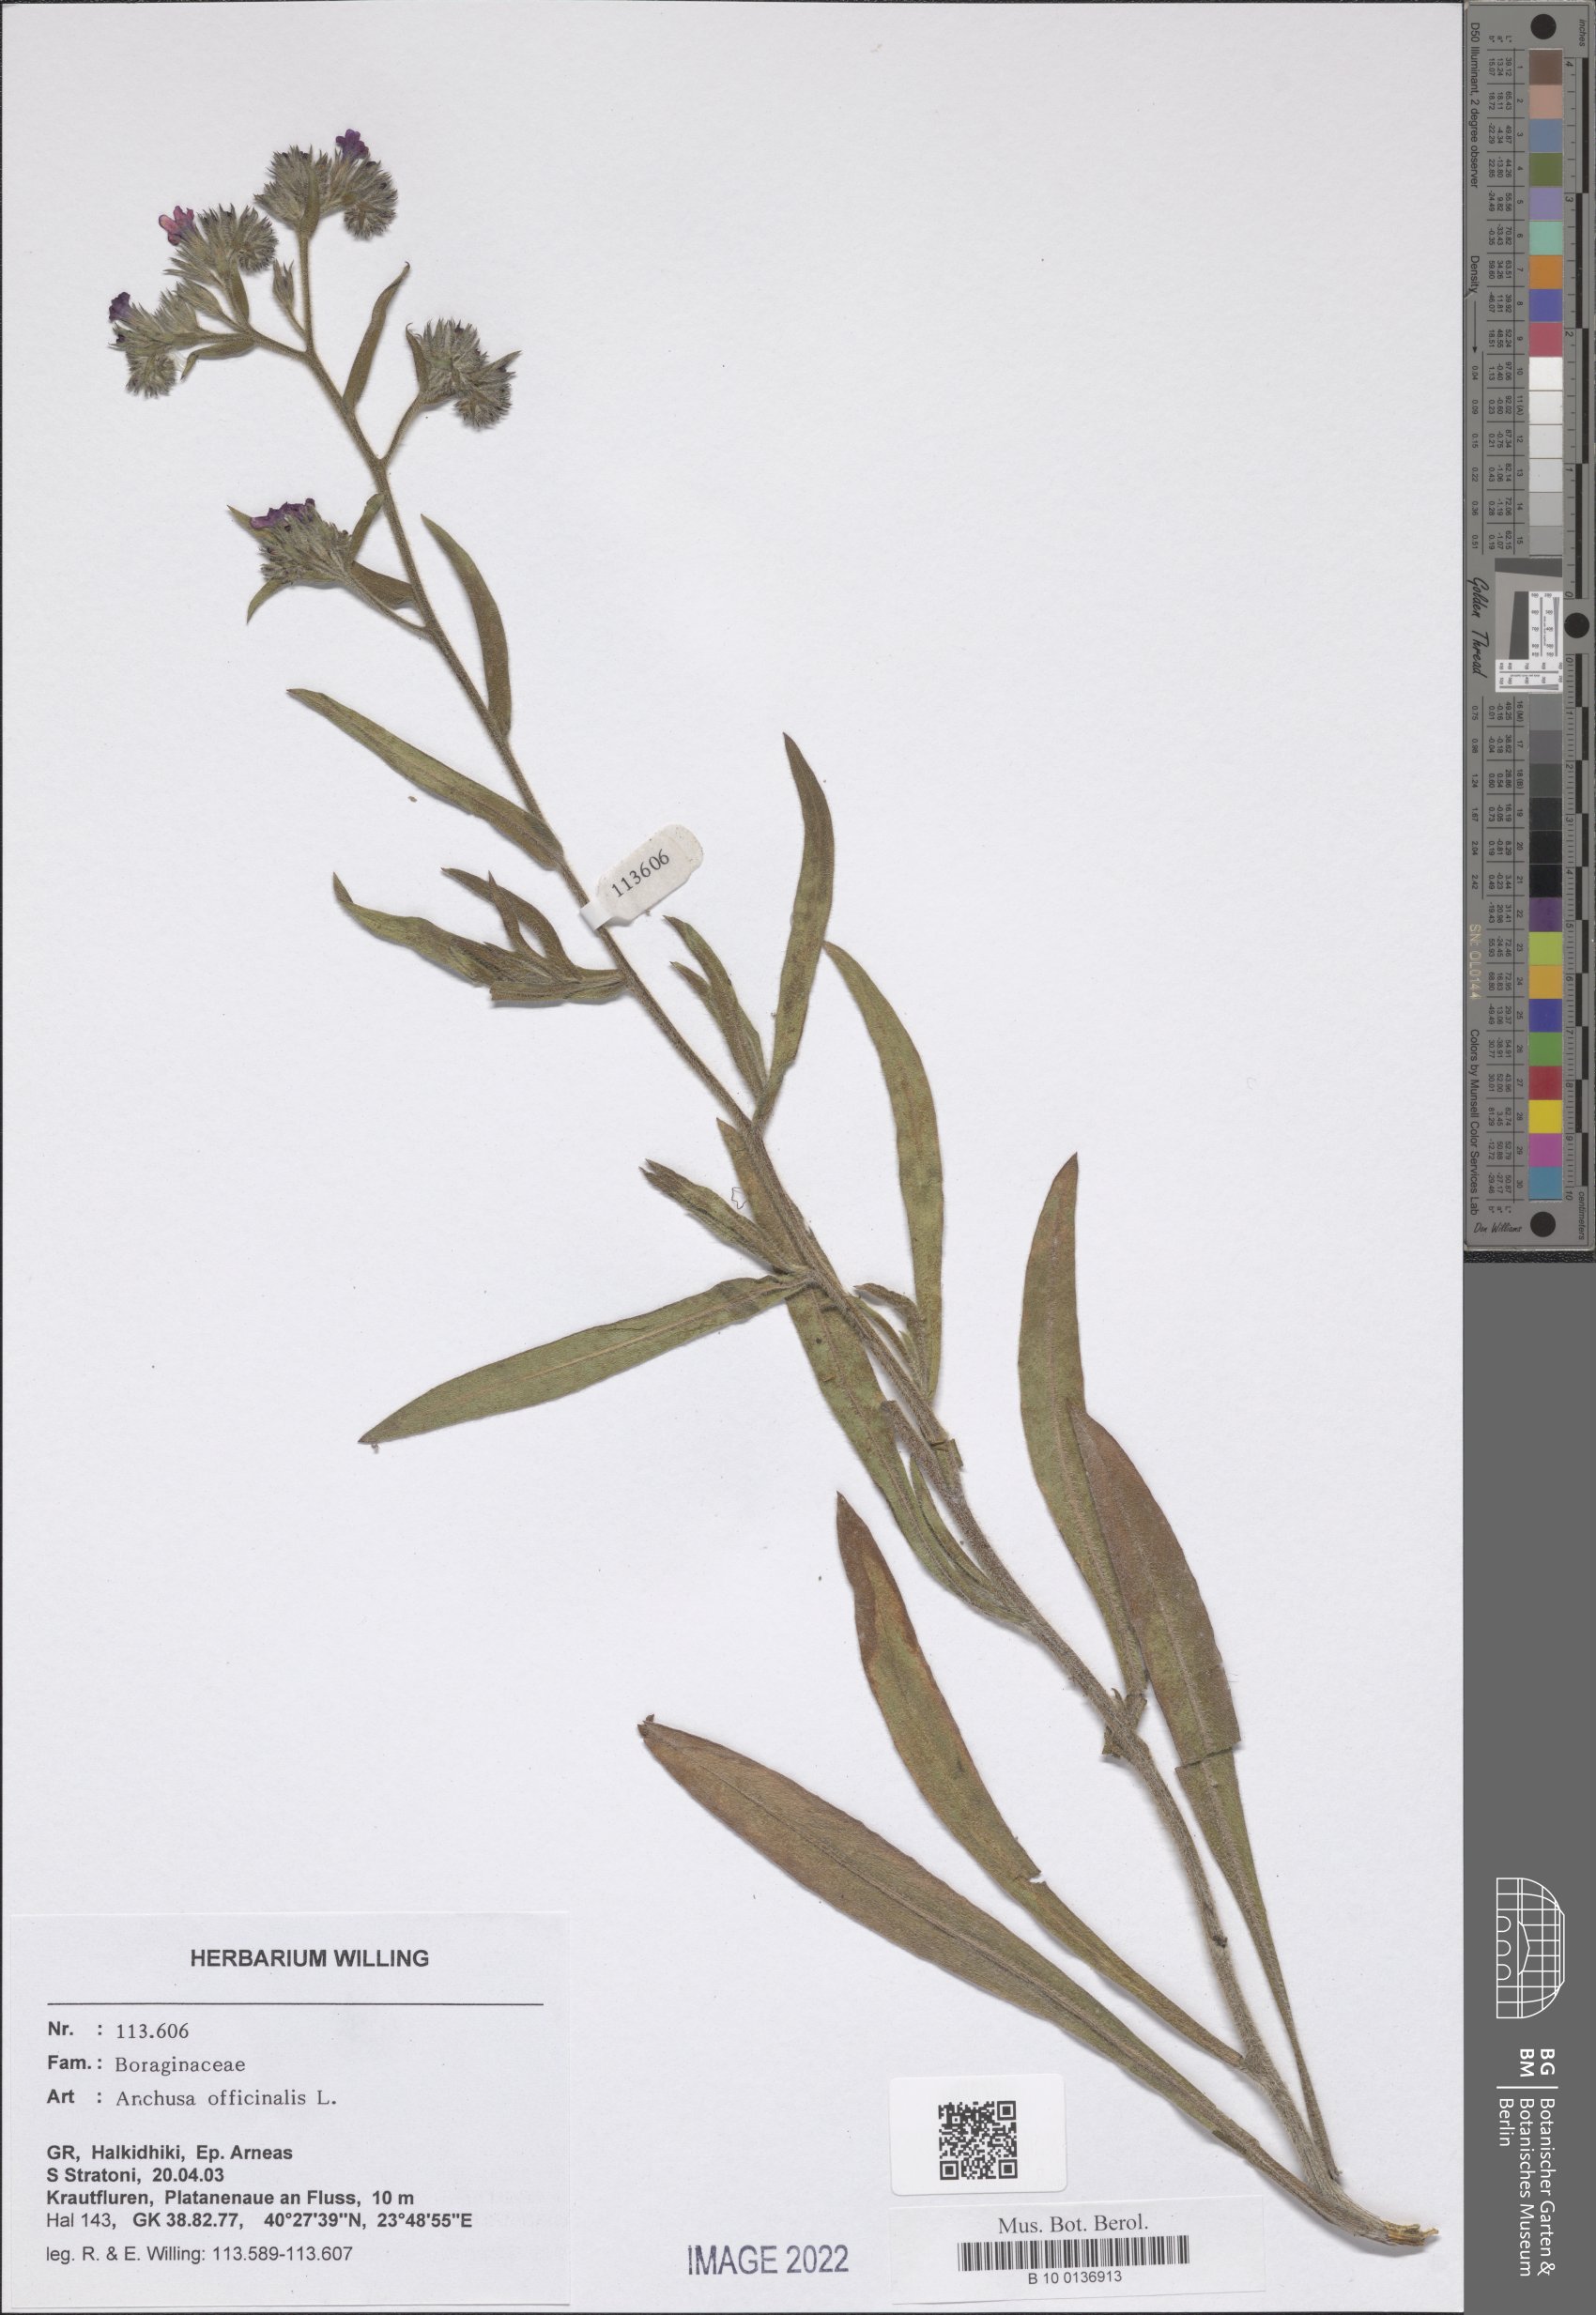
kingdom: Plantae
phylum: Tracheophyta
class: Magnoliopsida
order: Boraginales
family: Boraginaceae
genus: Anchusa
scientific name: Anchusa officinalis
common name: Alkanet
